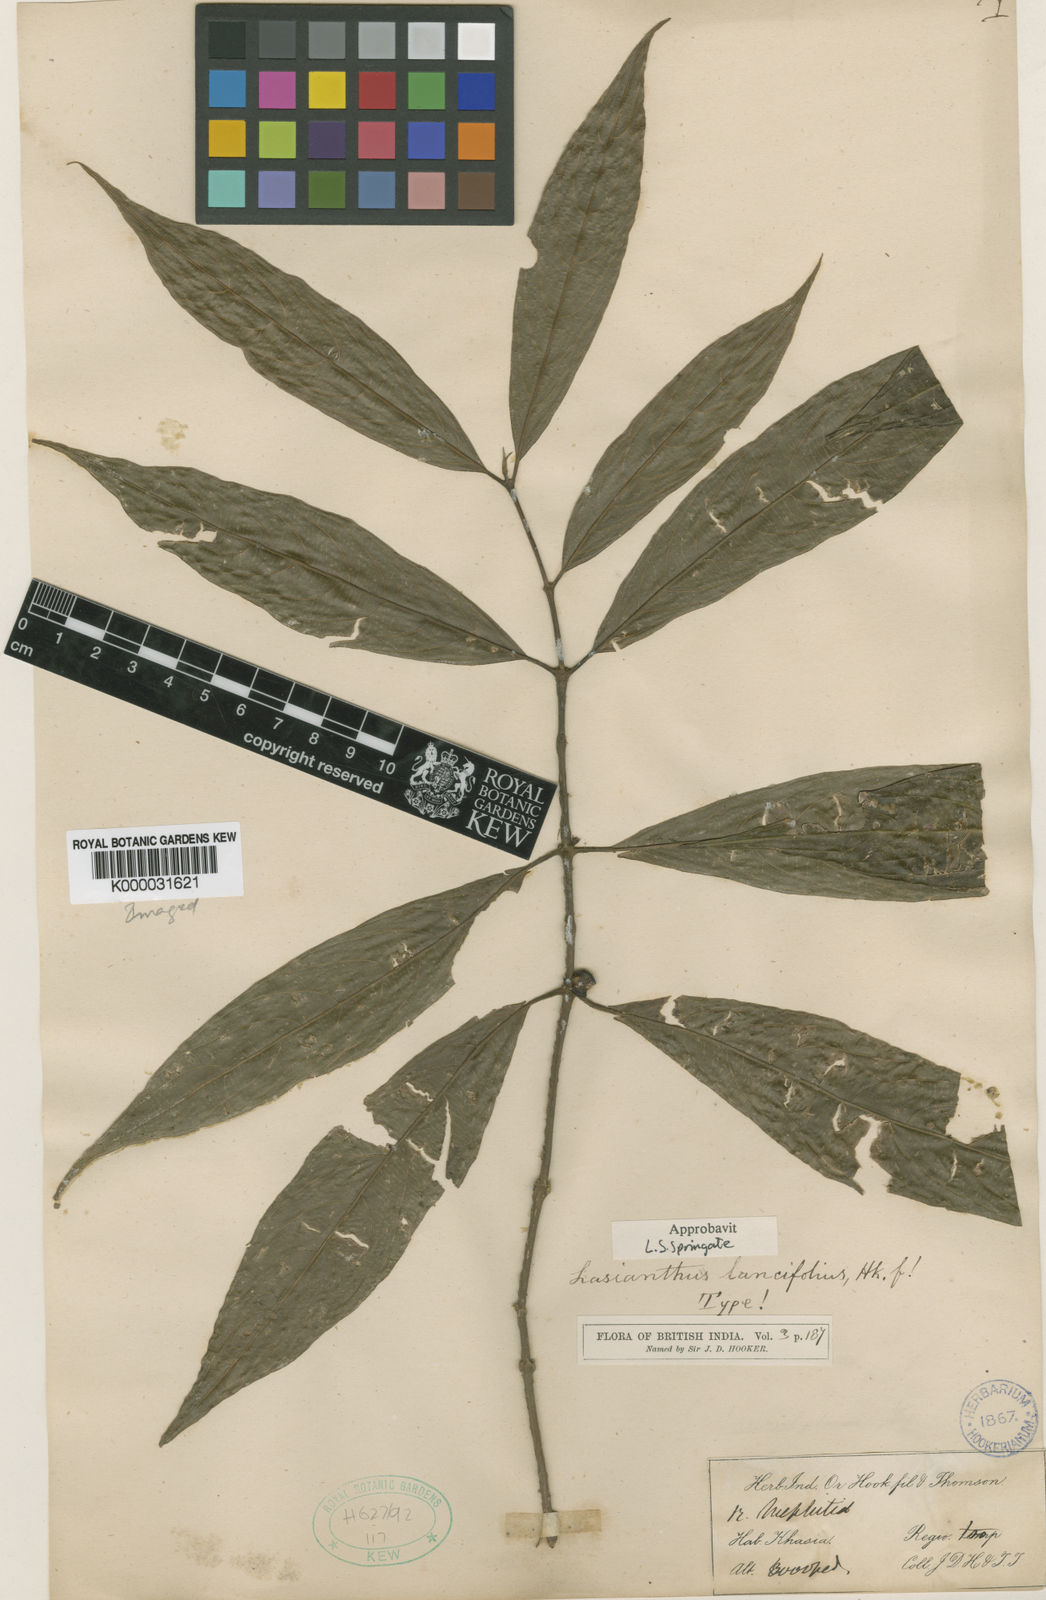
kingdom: Plantae
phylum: Tracheophyta
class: Magnoliopsida
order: Gentianales
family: Rubiaceae
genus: Lasianthus
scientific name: Lasianthus lancifolius
